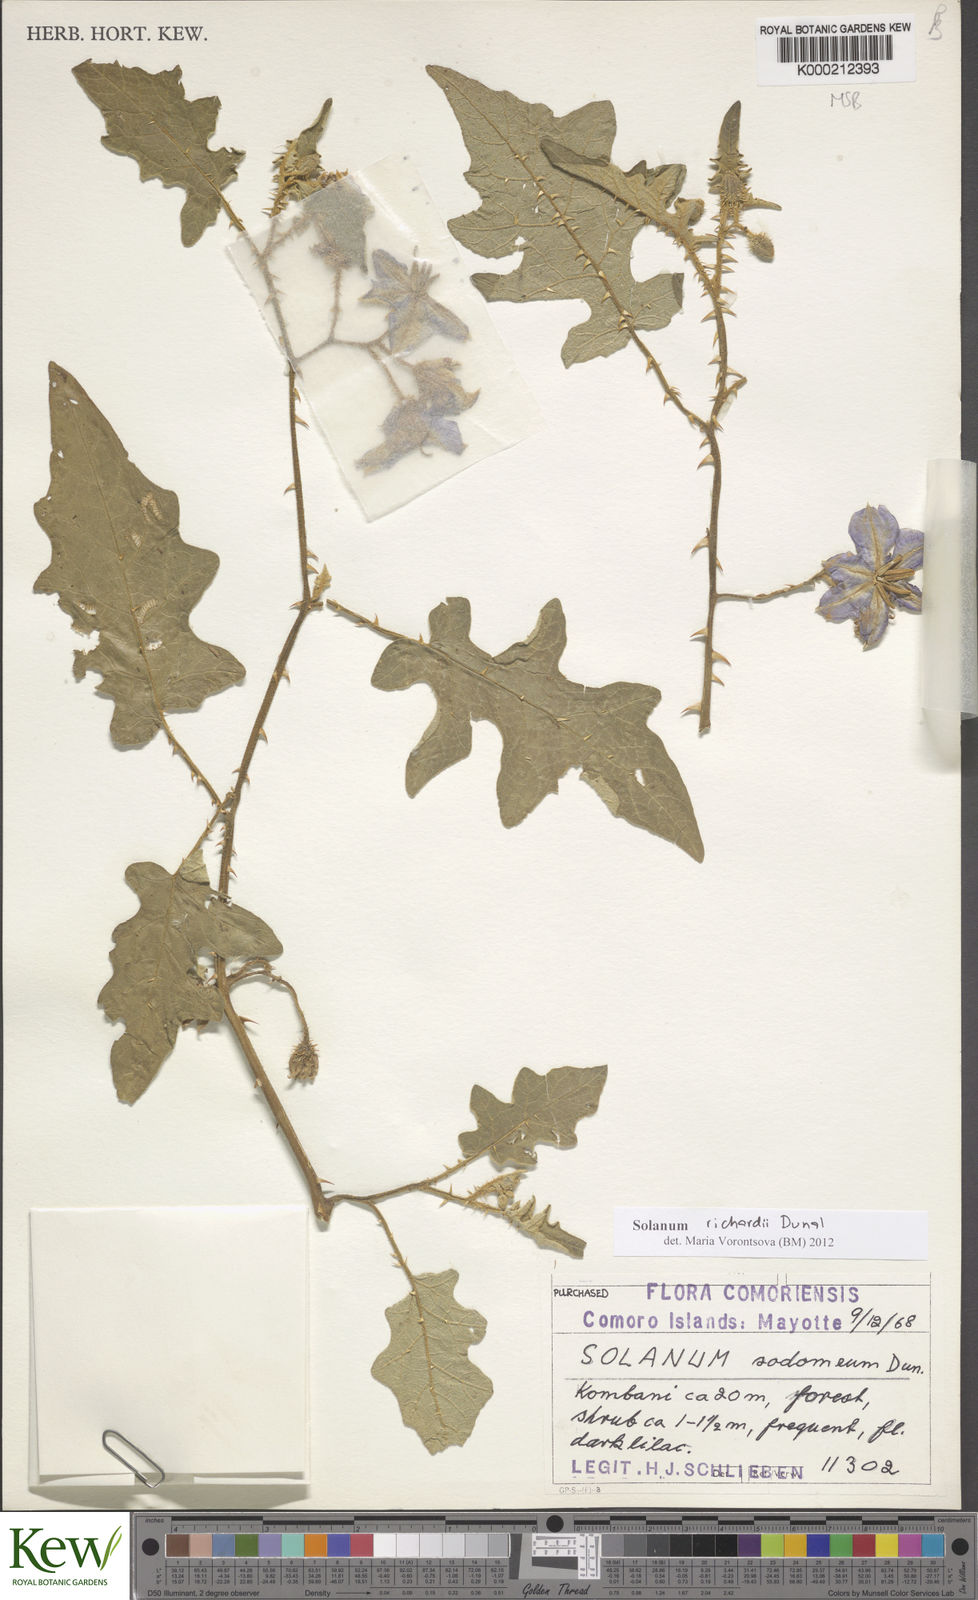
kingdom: Plantae
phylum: Tracheophyta
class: Magnoliopsida
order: Solanales
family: Solanaceae
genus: Solanum
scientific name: Solanum richardii
